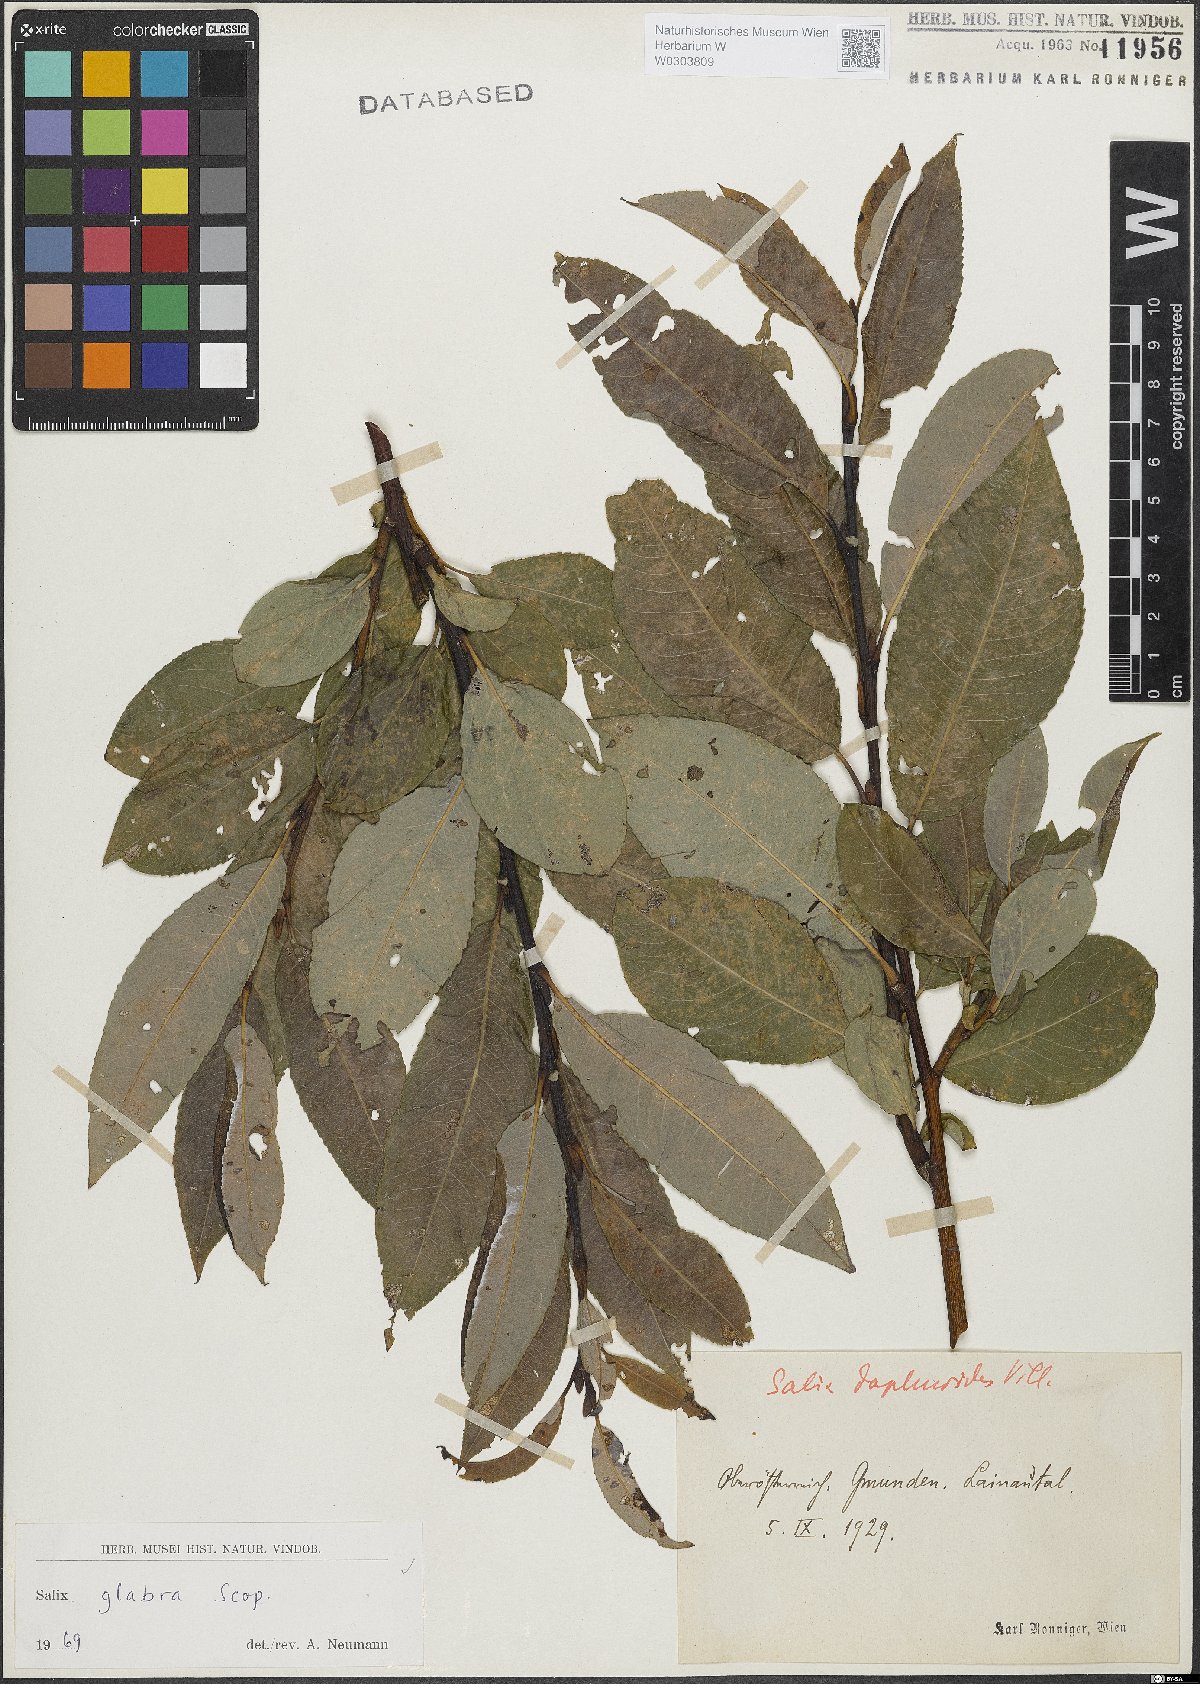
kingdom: Plantae
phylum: Tracheophyta
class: Magnoliopsida
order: Malpighiales
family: Salicaceae
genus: Salix
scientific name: Salix glabra
